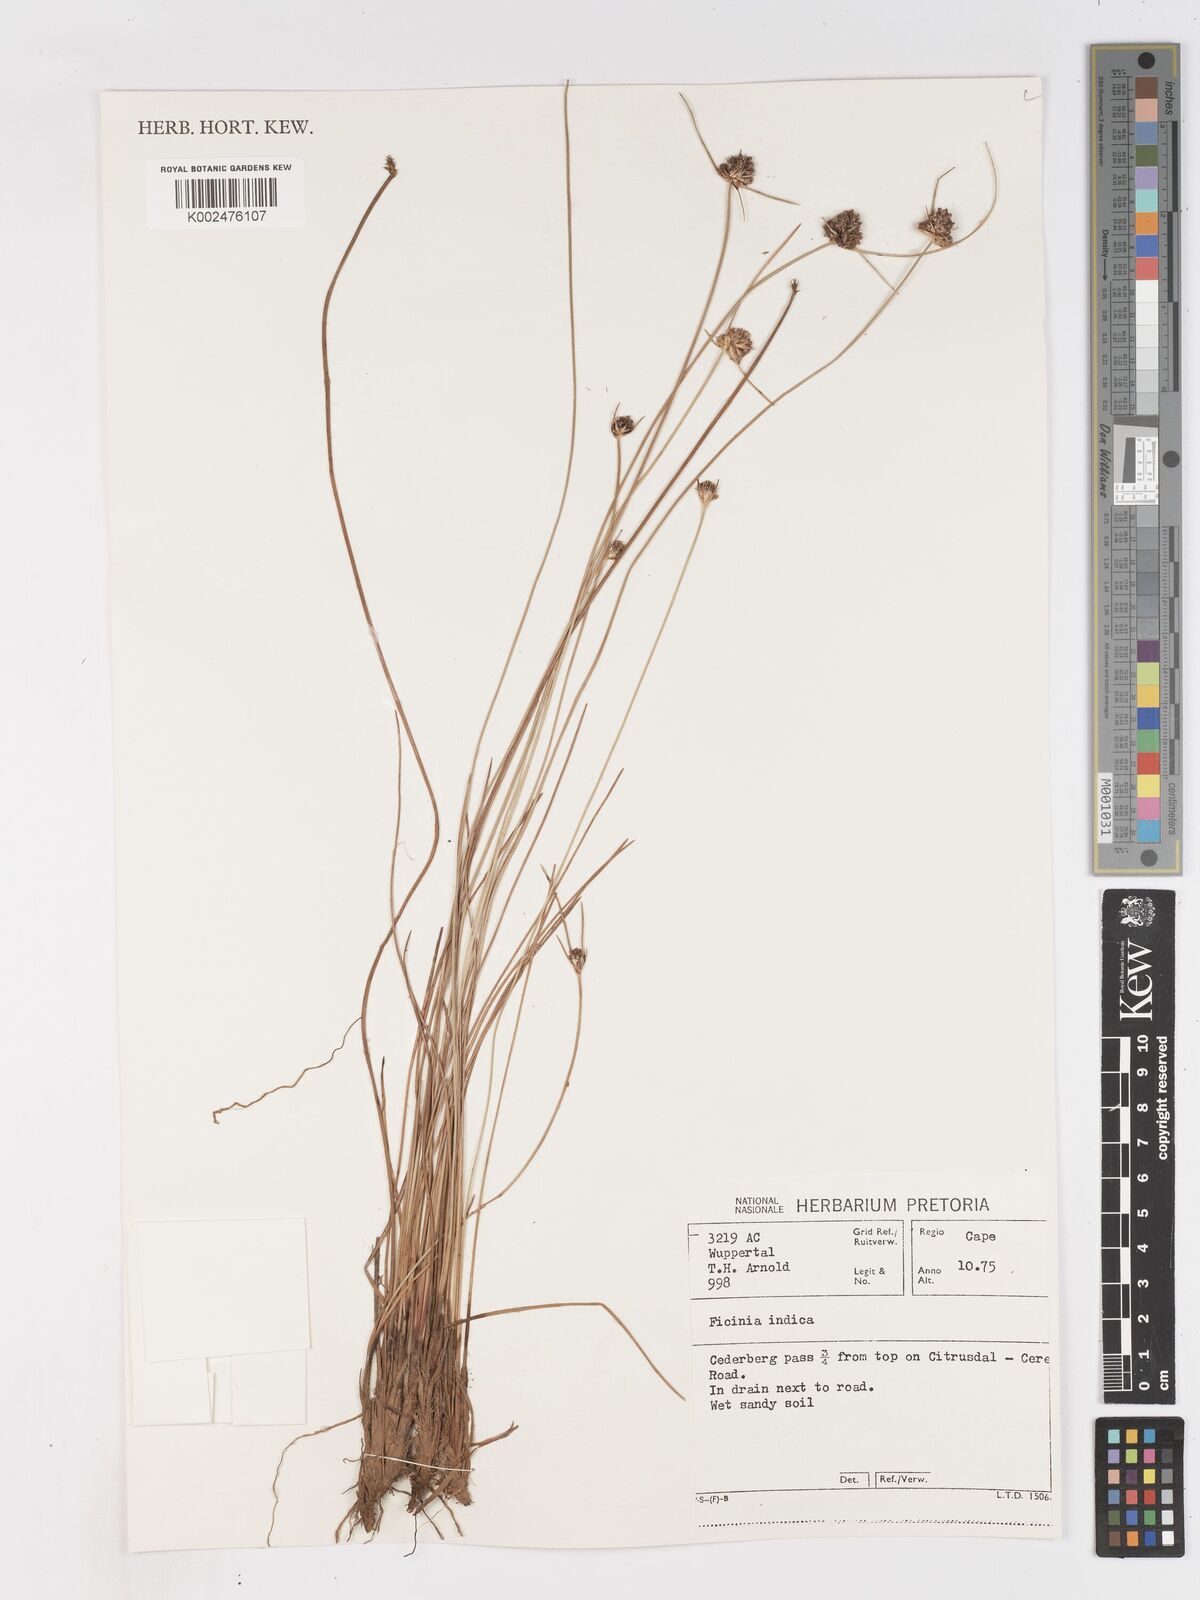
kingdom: Plantae
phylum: Tracheophyta
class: Liliopsida
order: Poales
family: Cyperaceae
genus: Ficinia
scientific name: Ficinia indica
